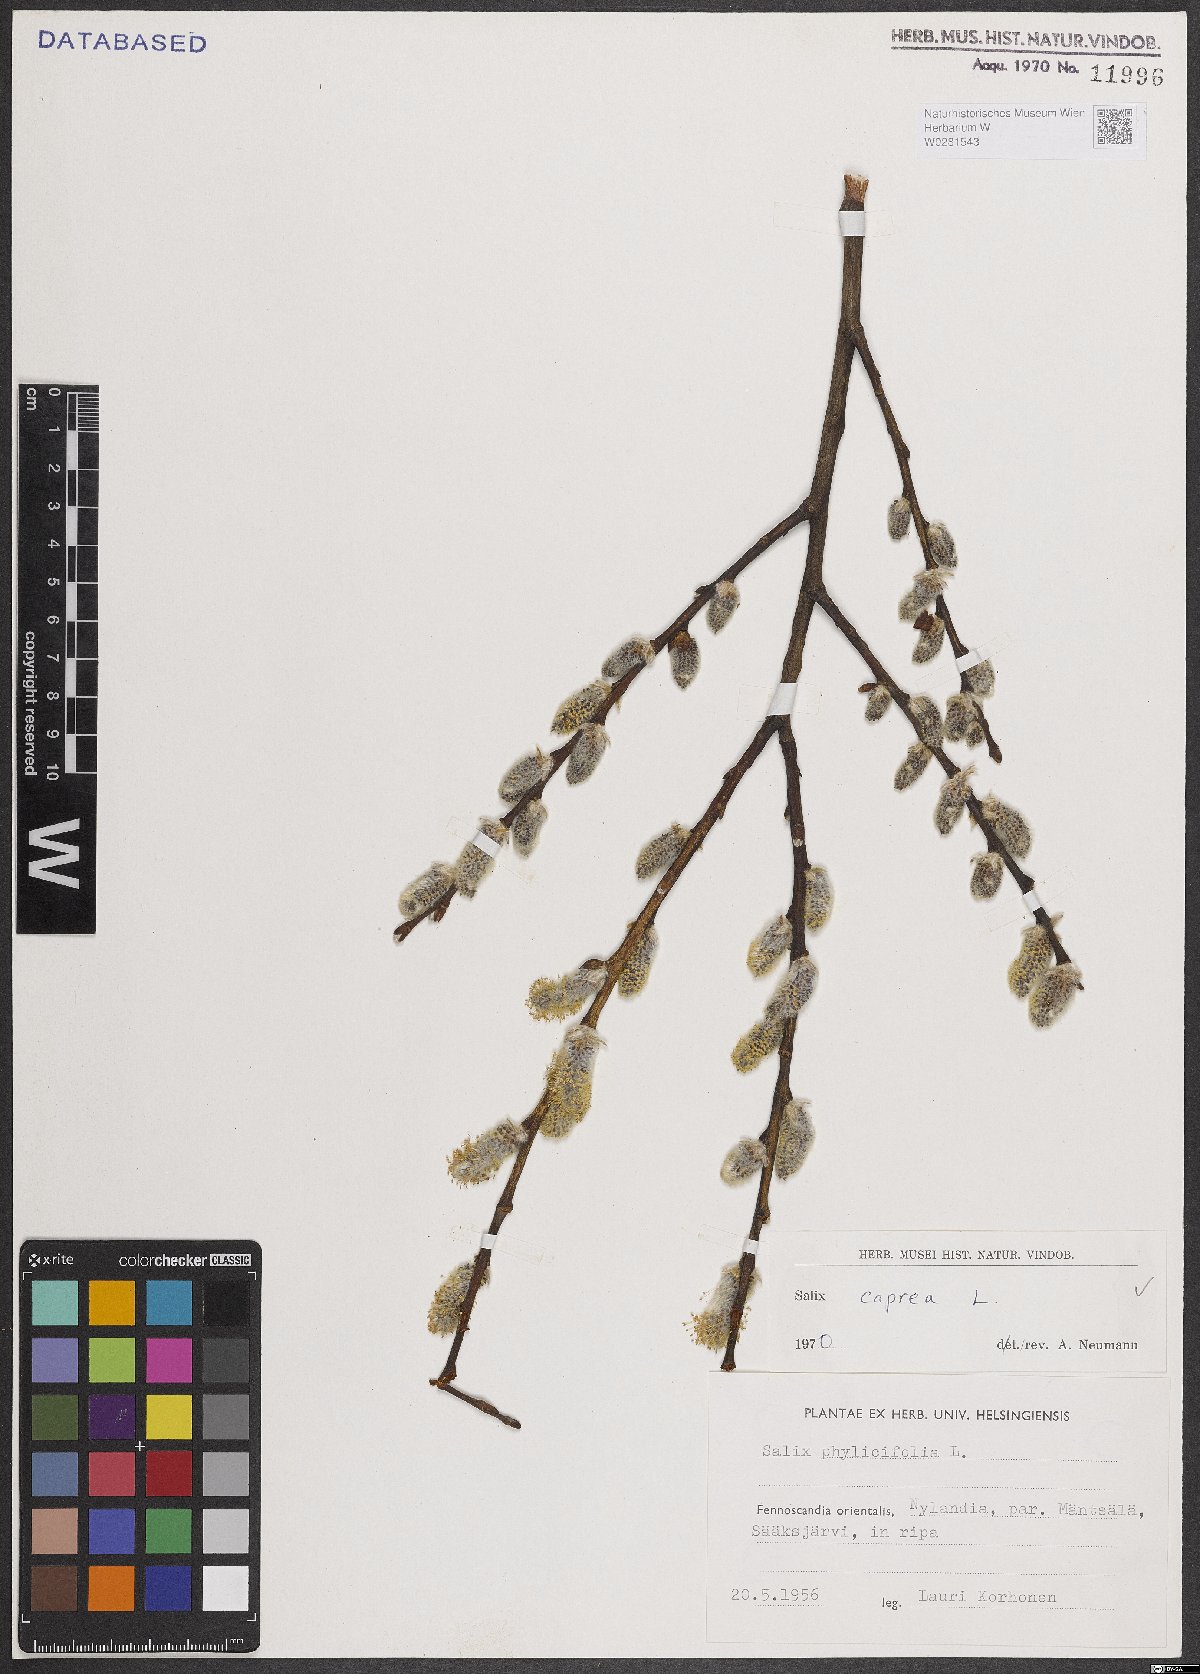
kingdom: Plantae
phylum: Tracheophyta
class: Magnoliopsida
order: Malpighiales
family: Salicaceae
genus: Salix
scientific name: Salix caprea
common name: Goat willow
